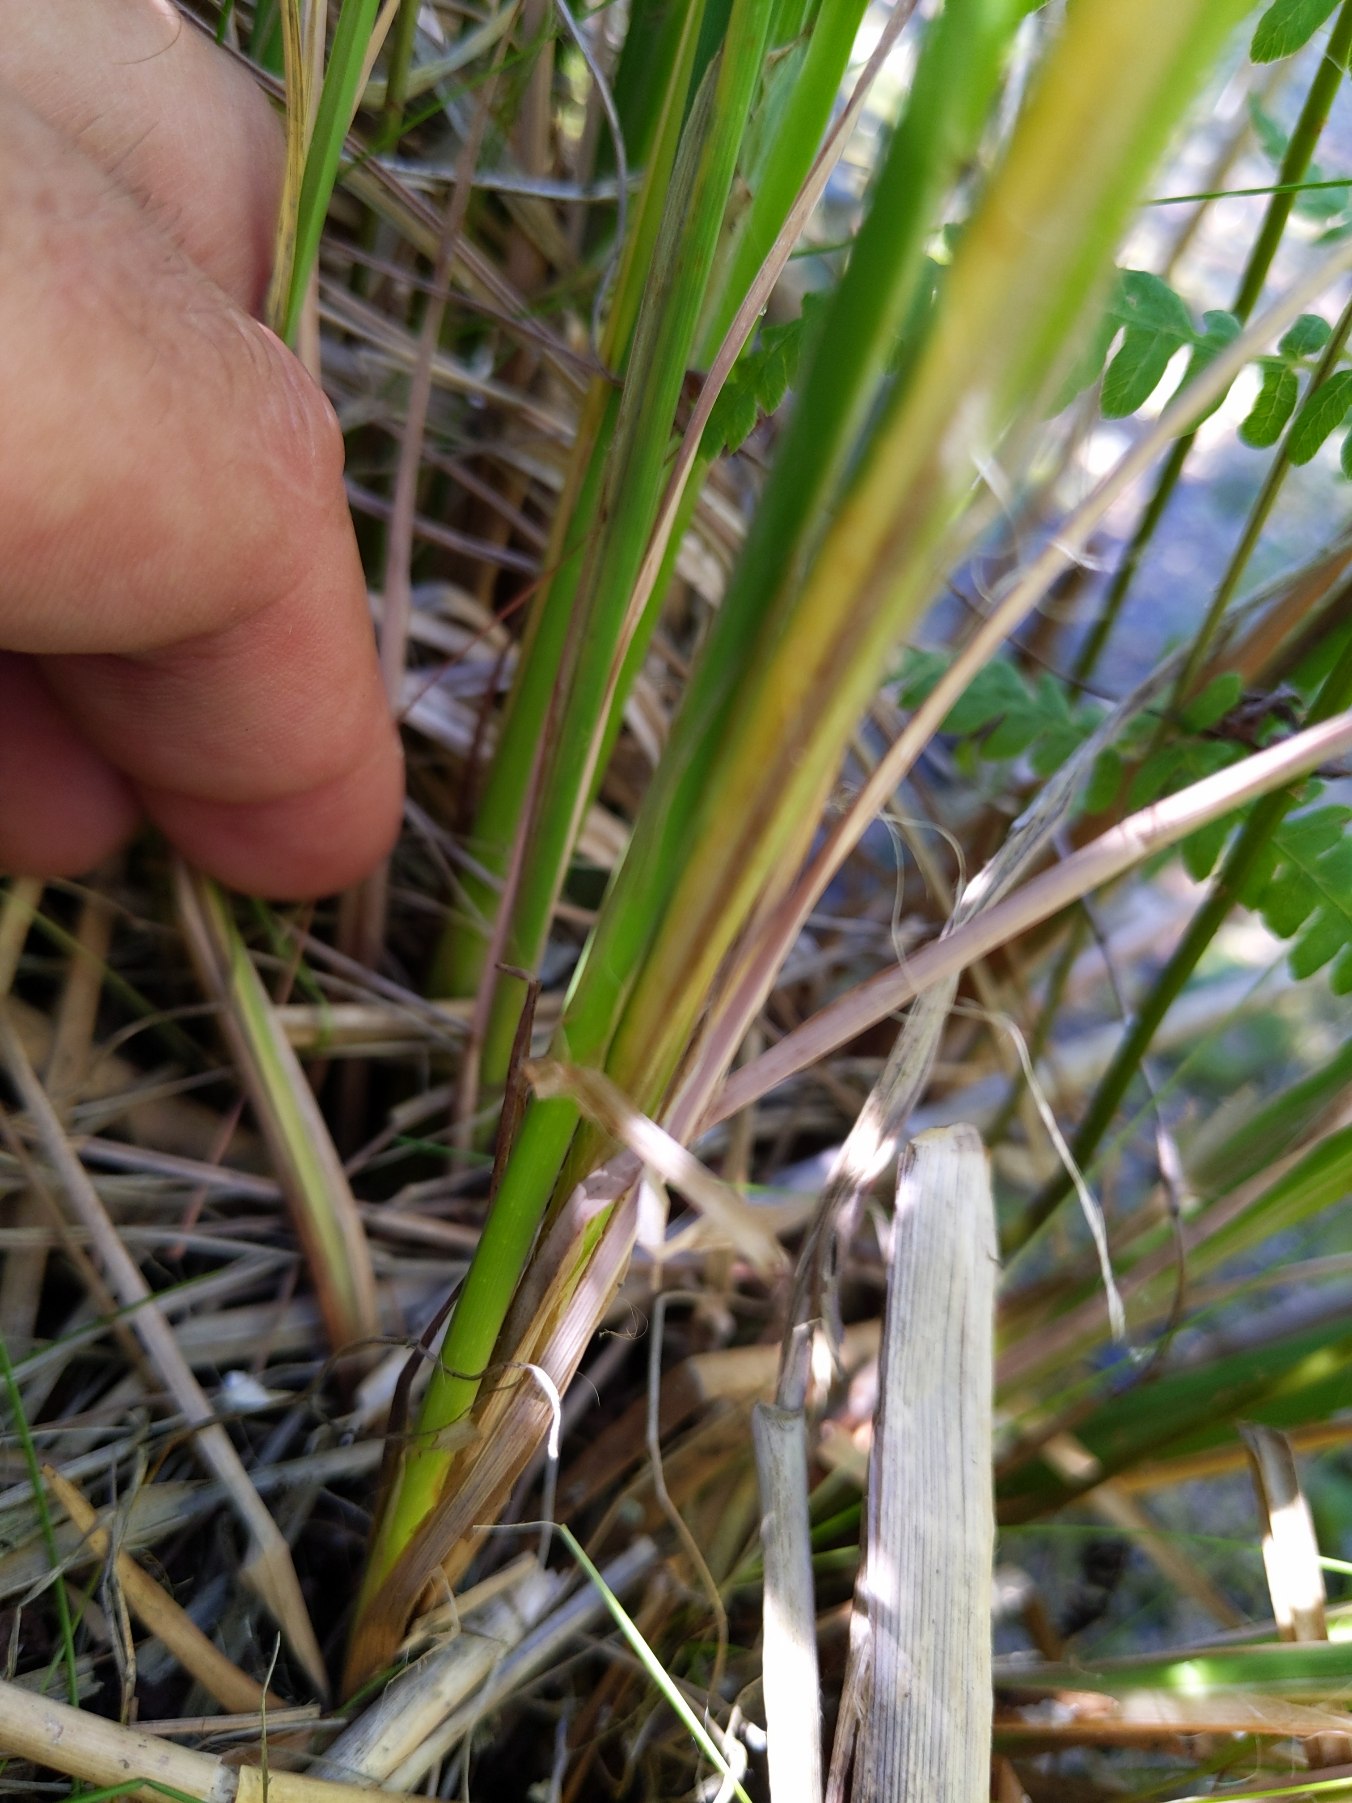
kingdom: Plantae
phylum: Tracheophyta
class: Liliopsida
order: Poales
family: Cyperaceae
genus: Carex
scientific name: Carex elata
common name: Stiv star
